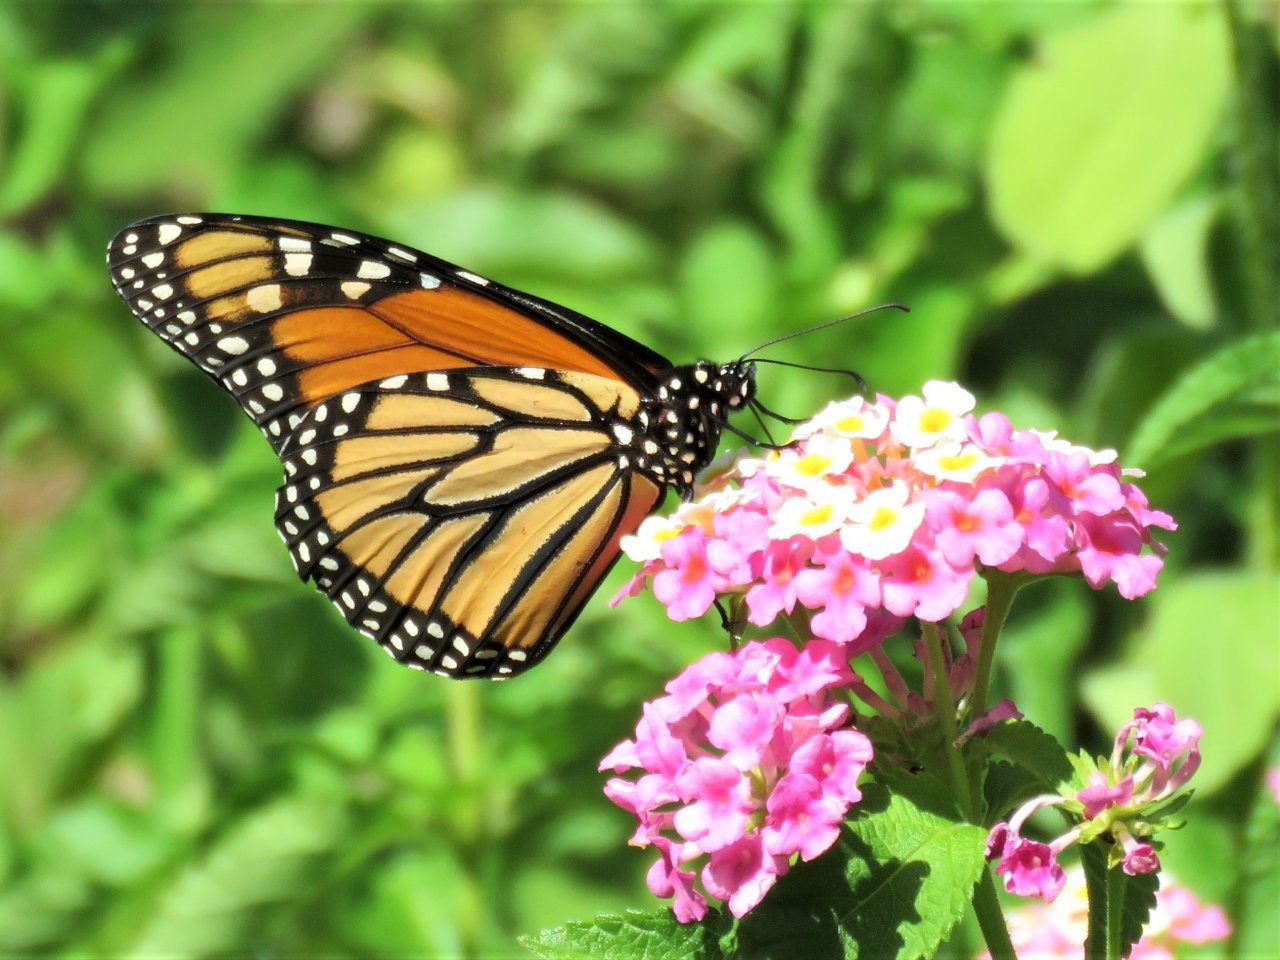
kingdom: Animalia
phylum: Arthropoda
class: Insecta
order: Lepidoptera
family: Nymphalidae
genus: Danaus
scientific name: Danaus plexippus
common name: Monarch
